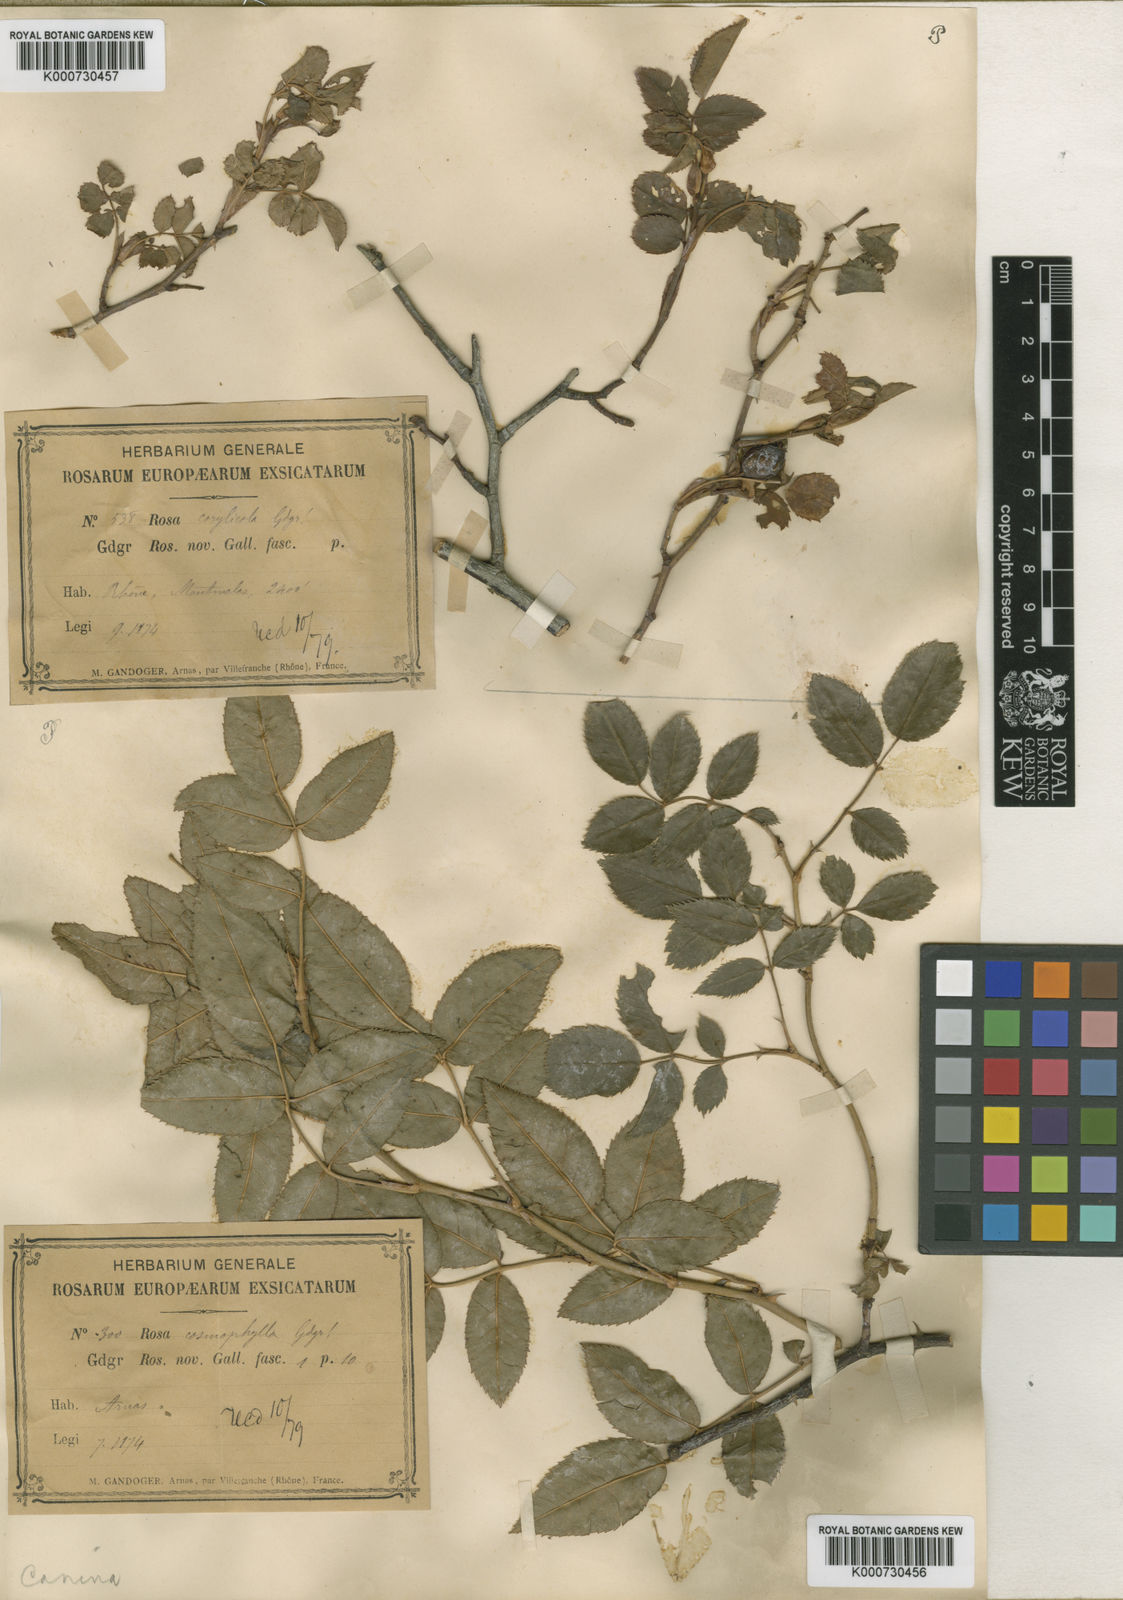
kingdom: Plantae
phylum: Tracheophyta
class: Magnoliopsida
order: Rosales
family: Rosaceae
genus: Rosa
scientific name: Rosa canina
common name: Dog rose
